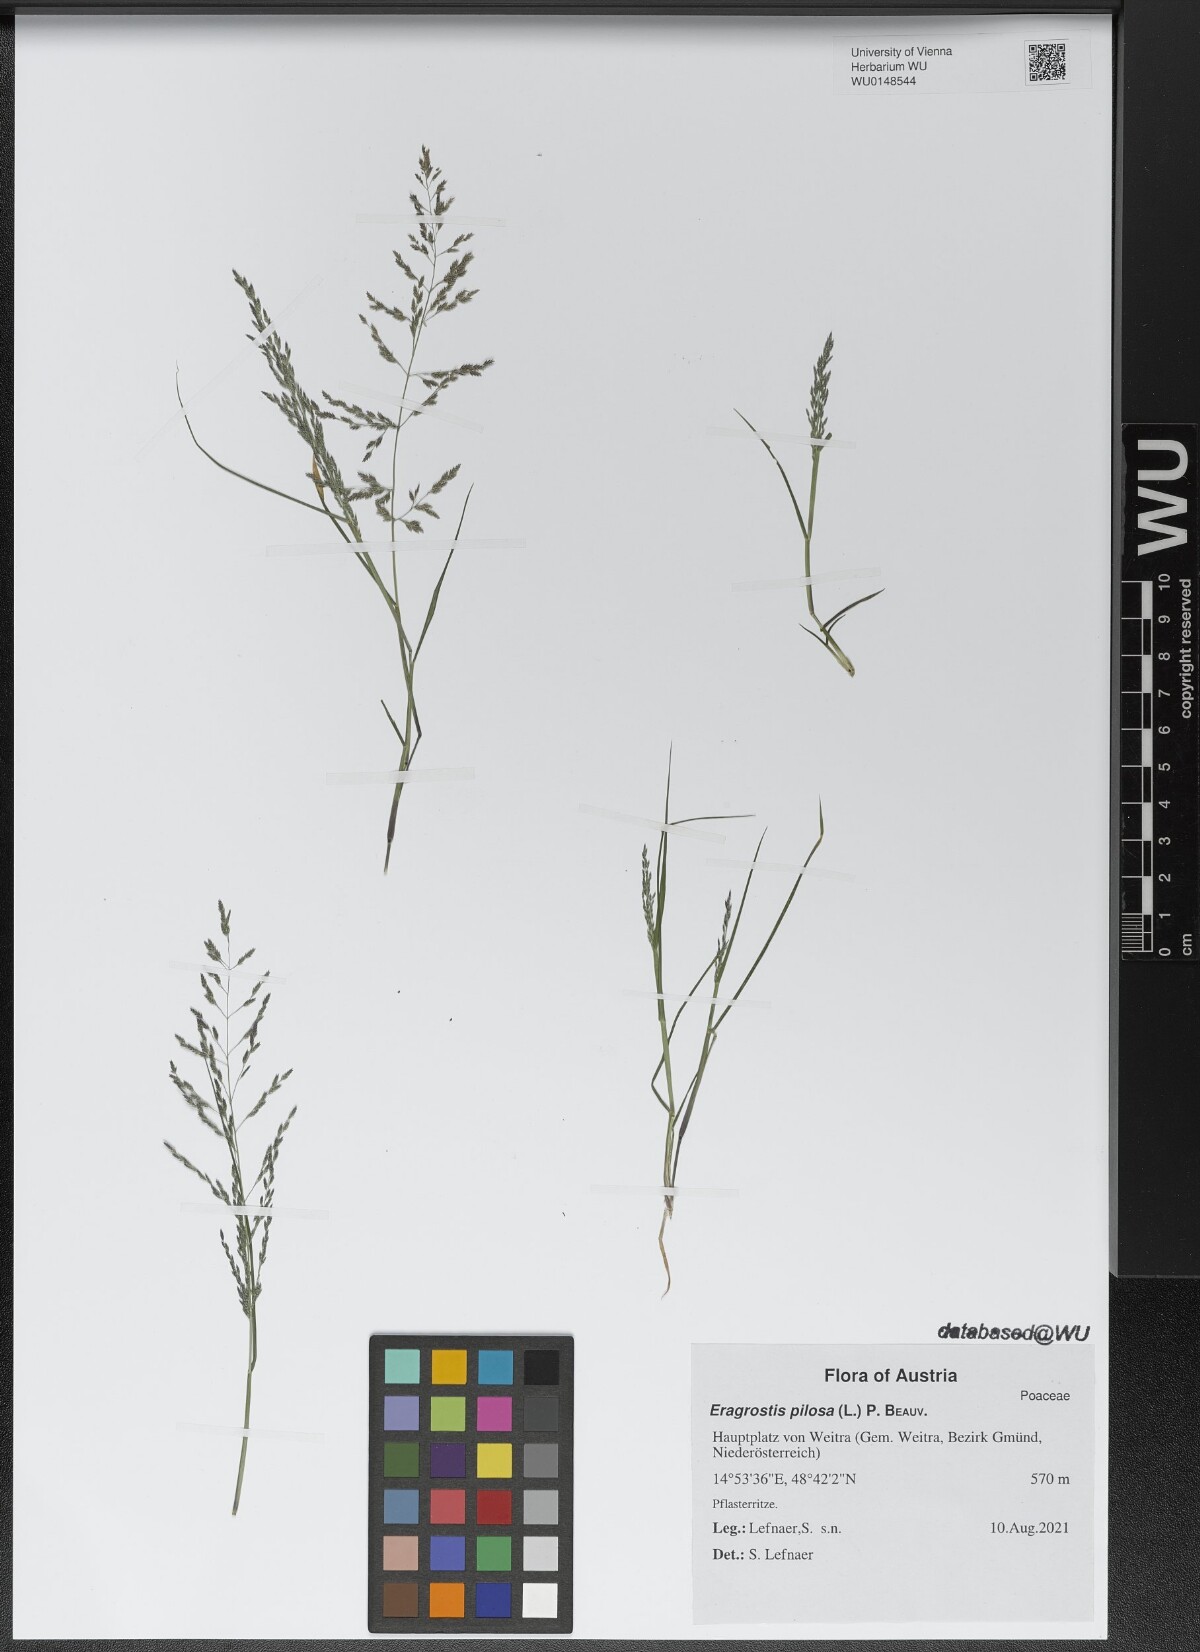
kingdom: Plantae
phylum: Tracheophyta
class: Liliopsida
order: Poales
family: Poaceae
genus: Eragrostis
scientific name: Eragrostis pilosa
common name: Indian lovegrass
